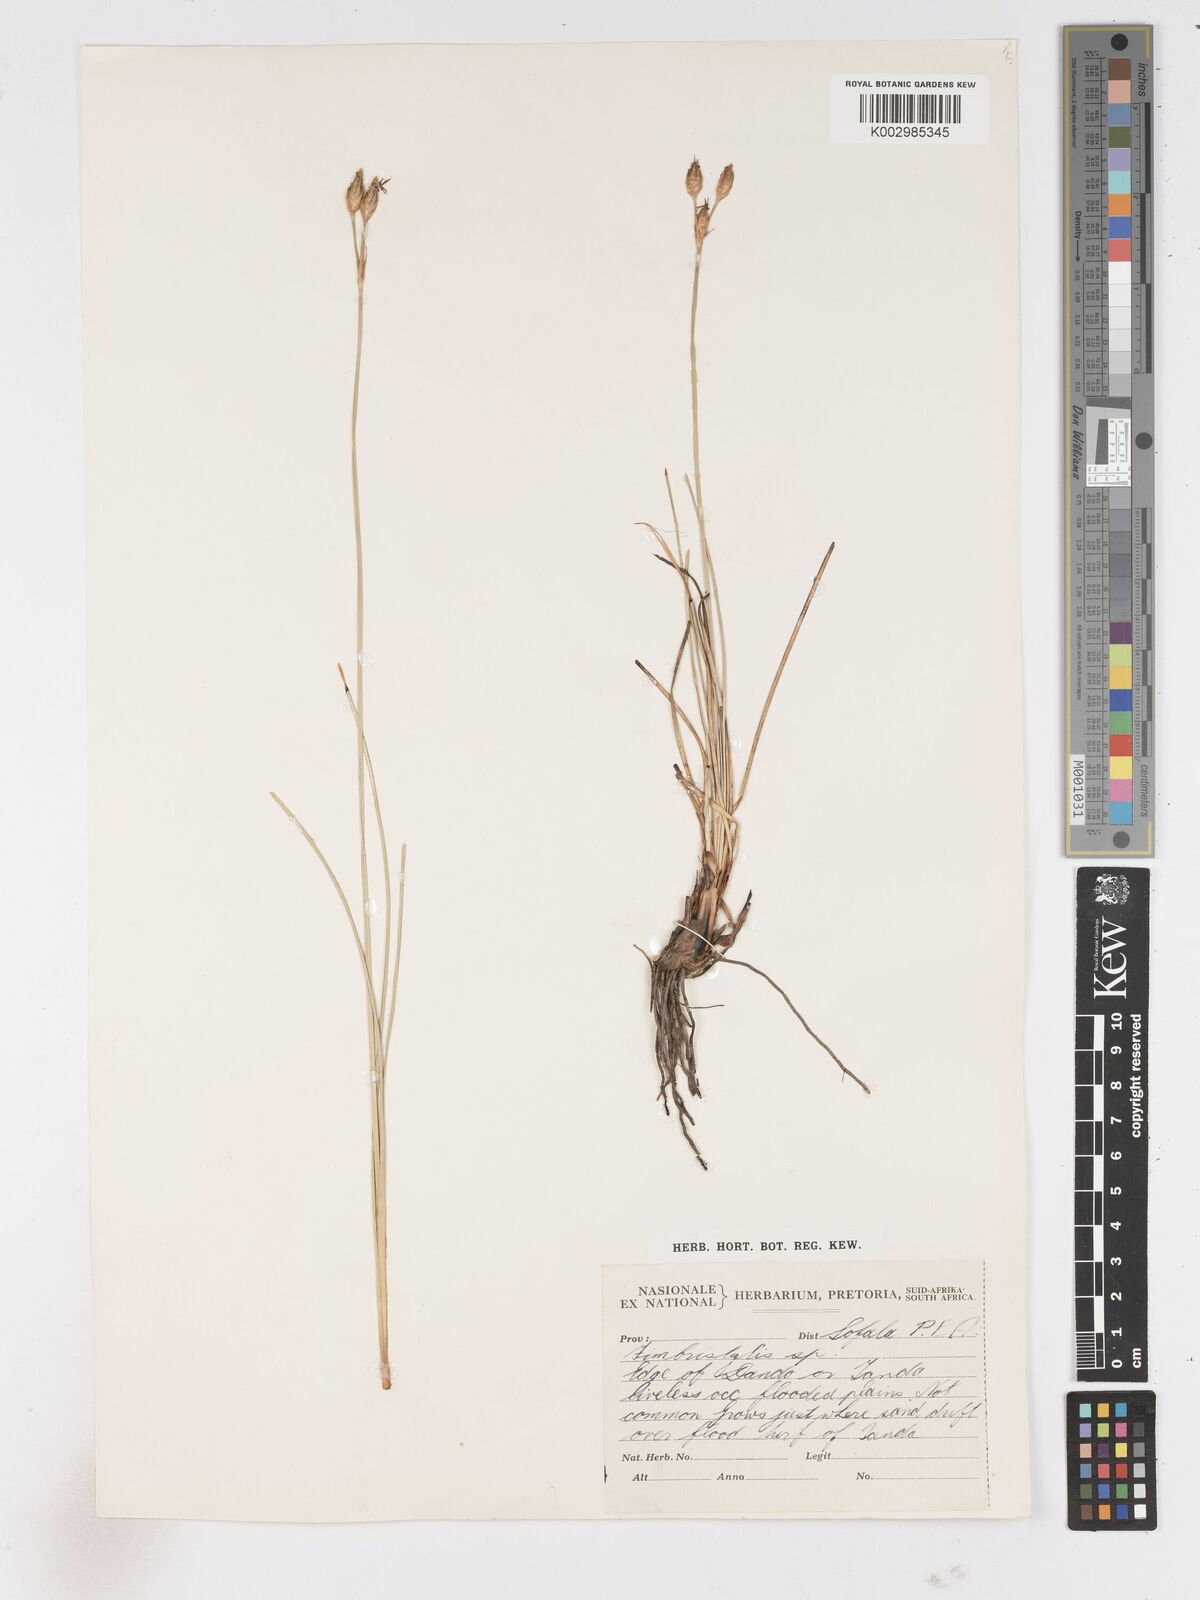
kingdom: Plantae
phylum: Tracheophyta
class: Liliopsida
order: Poales
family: Cyperaceae
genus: Abildgaardia
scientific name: Abildgaardia triflora
